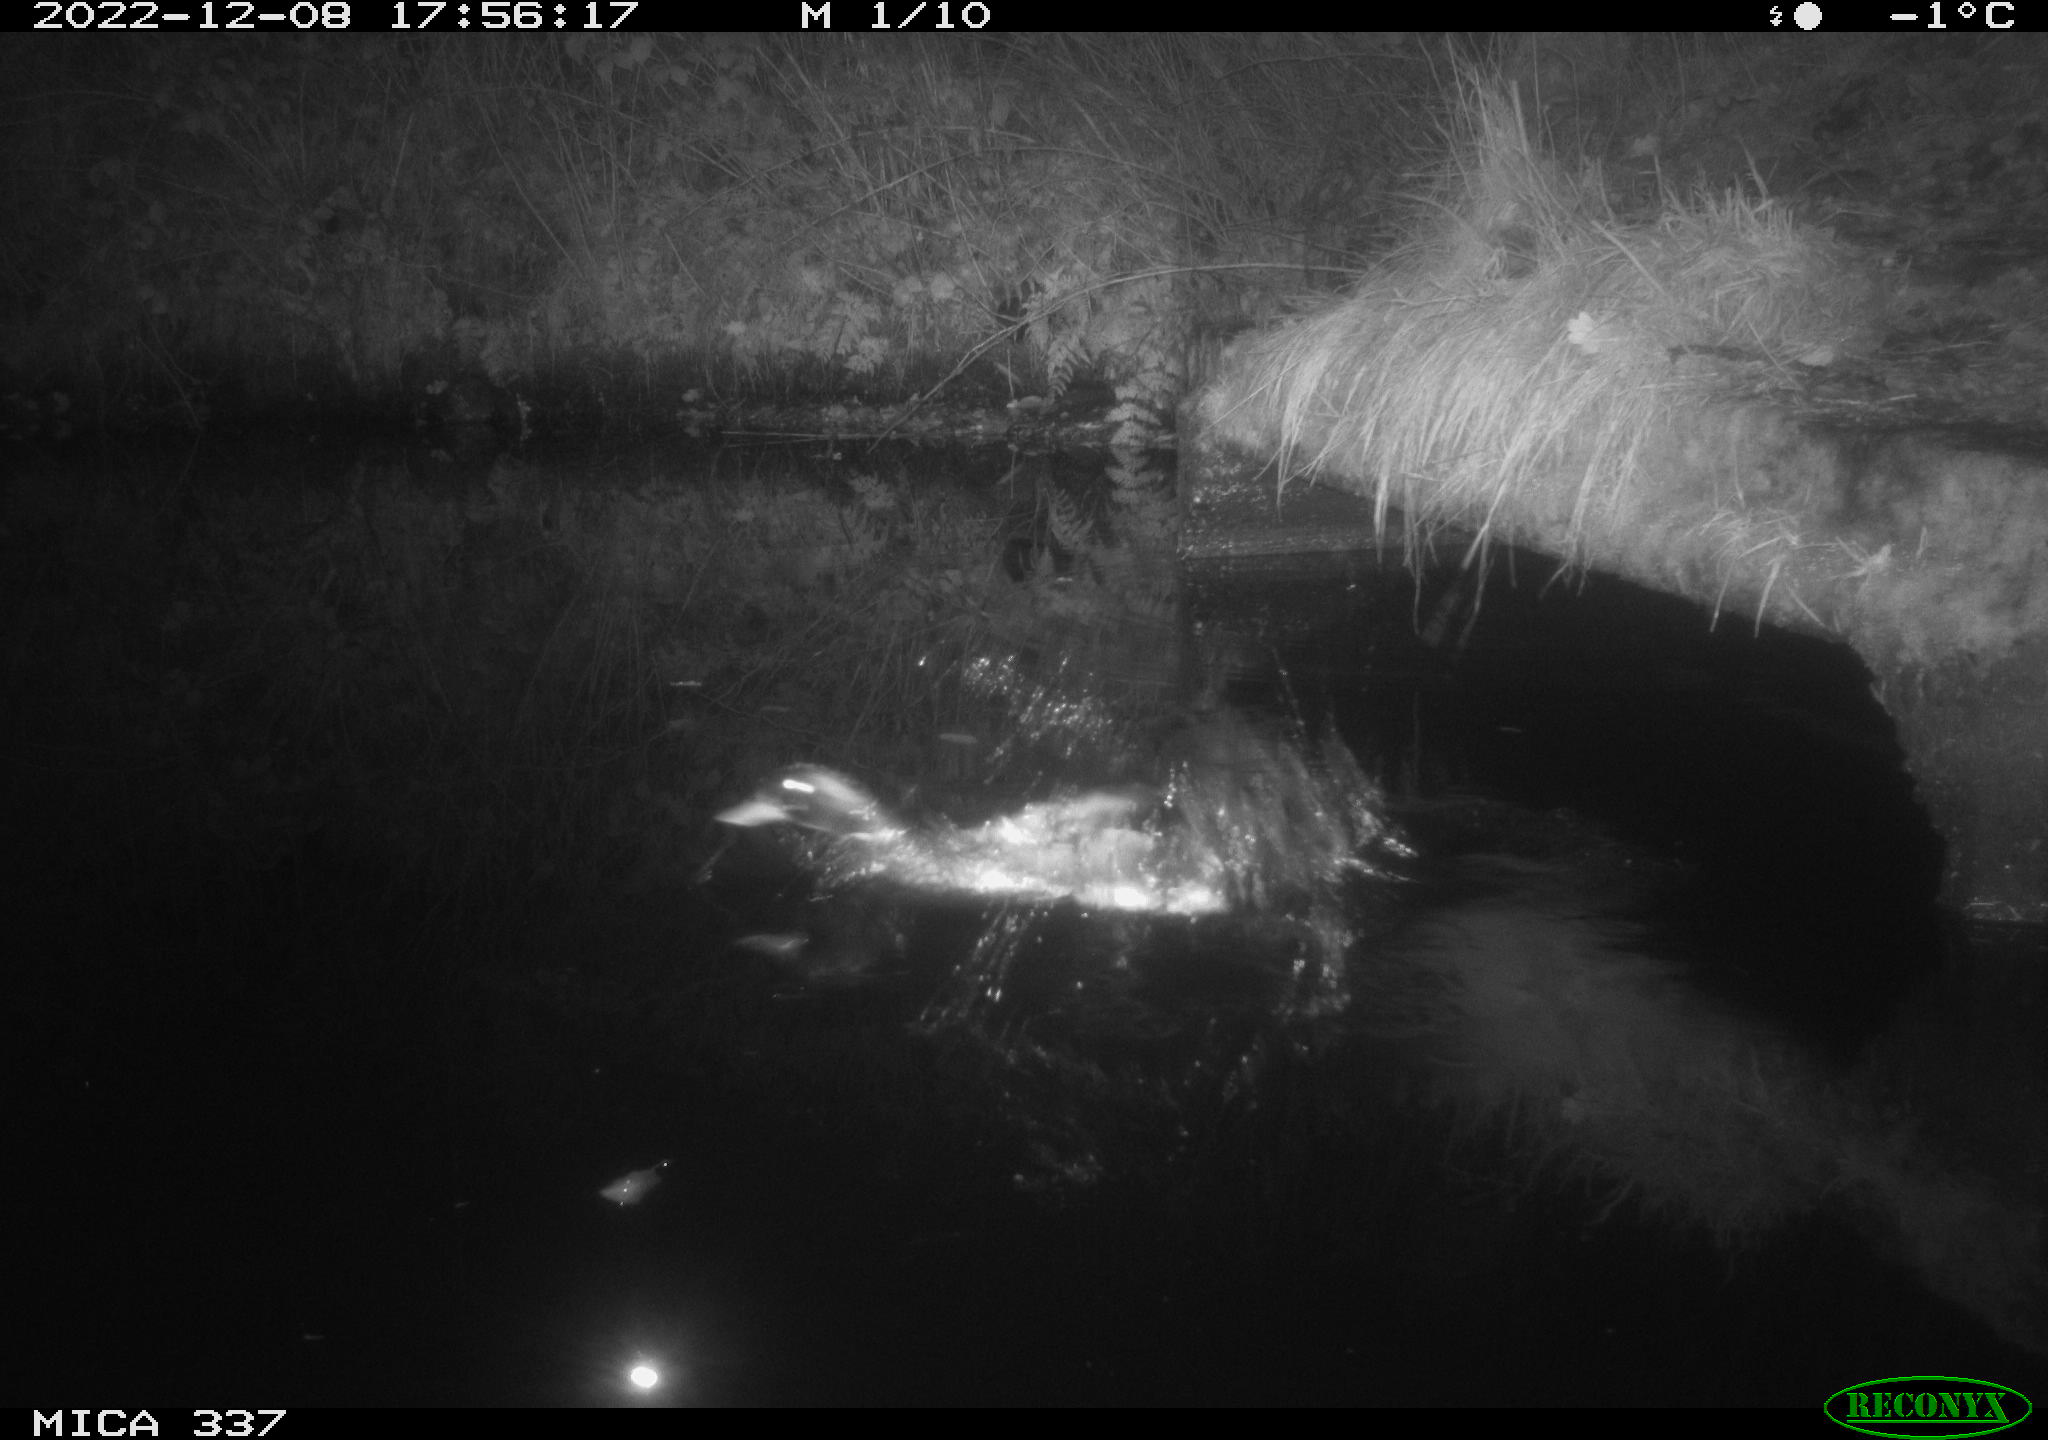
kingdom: Animalia
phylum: Chordata
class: Aves
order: Anseriformes
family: Anatidae
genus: Anas
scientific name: Anas platyrhynchos
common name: Mallard
